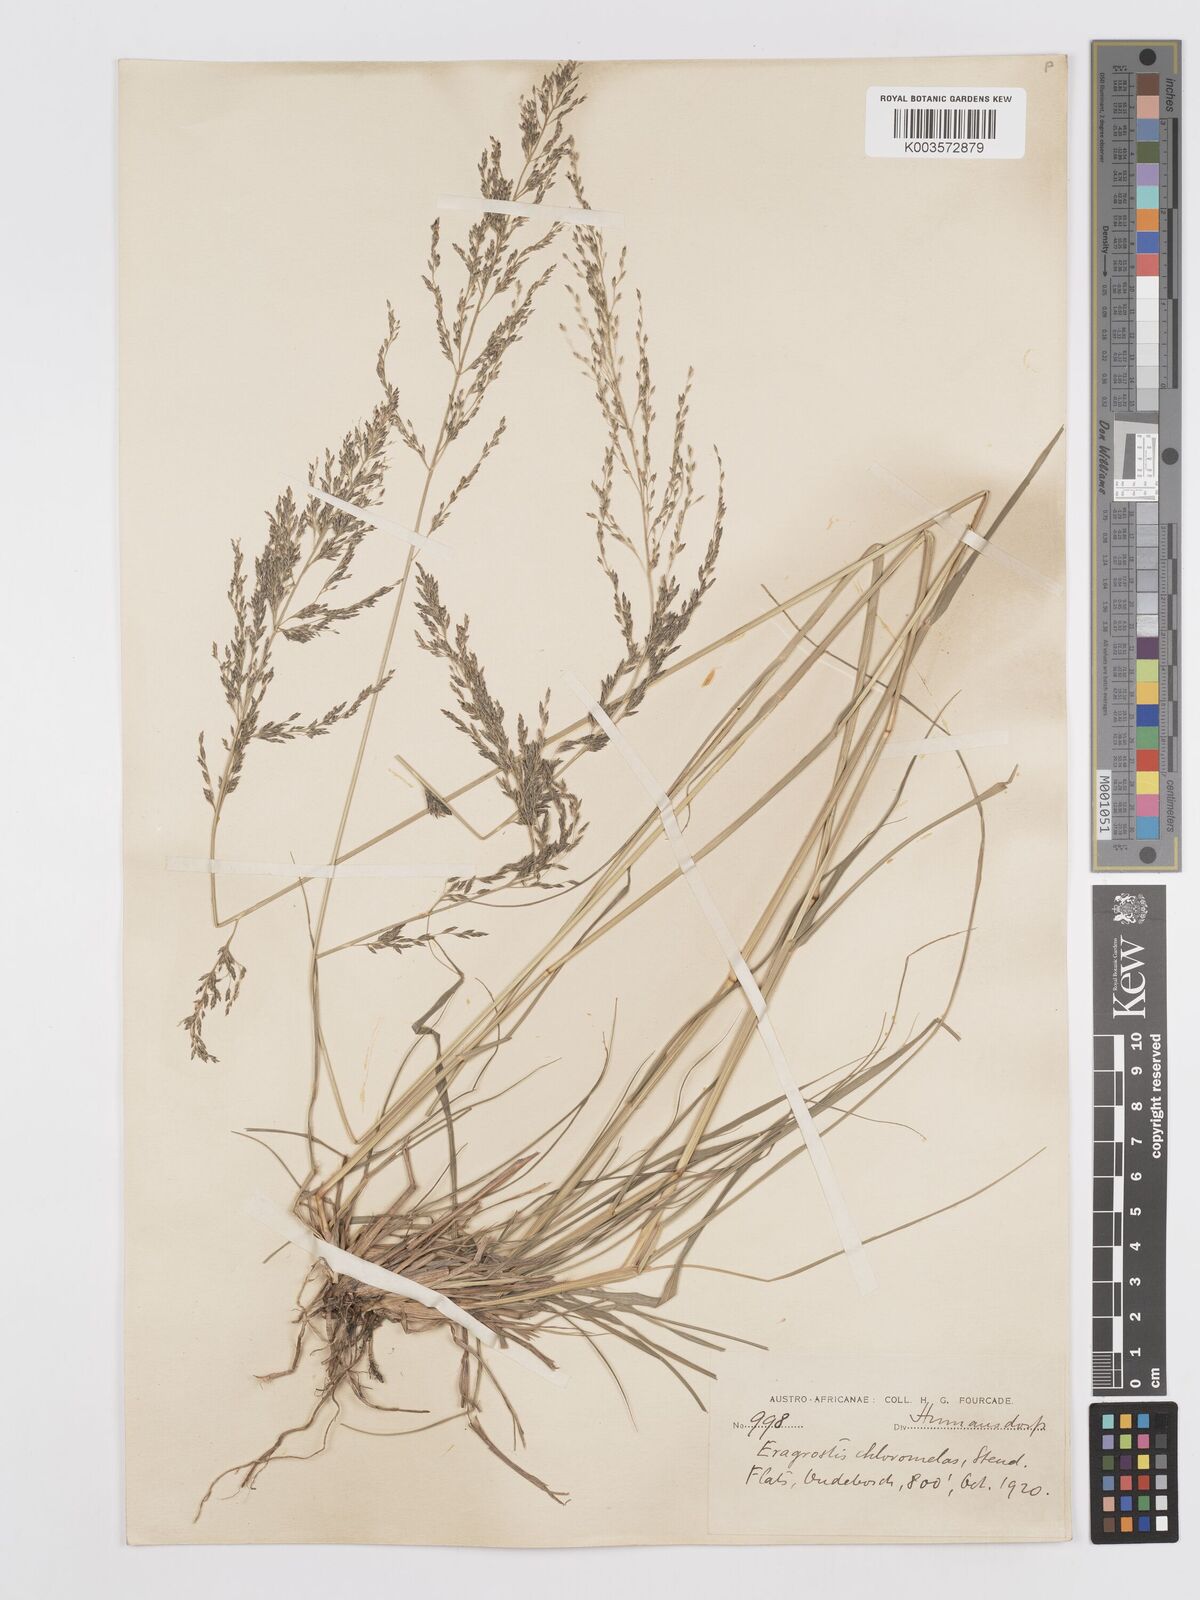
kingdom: Plantae
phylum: Tracheophyta
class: Liliopsida
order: Poales
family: Poaceae
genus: Eragrostis
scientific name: Eragrostis curvula
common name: African love-grass
